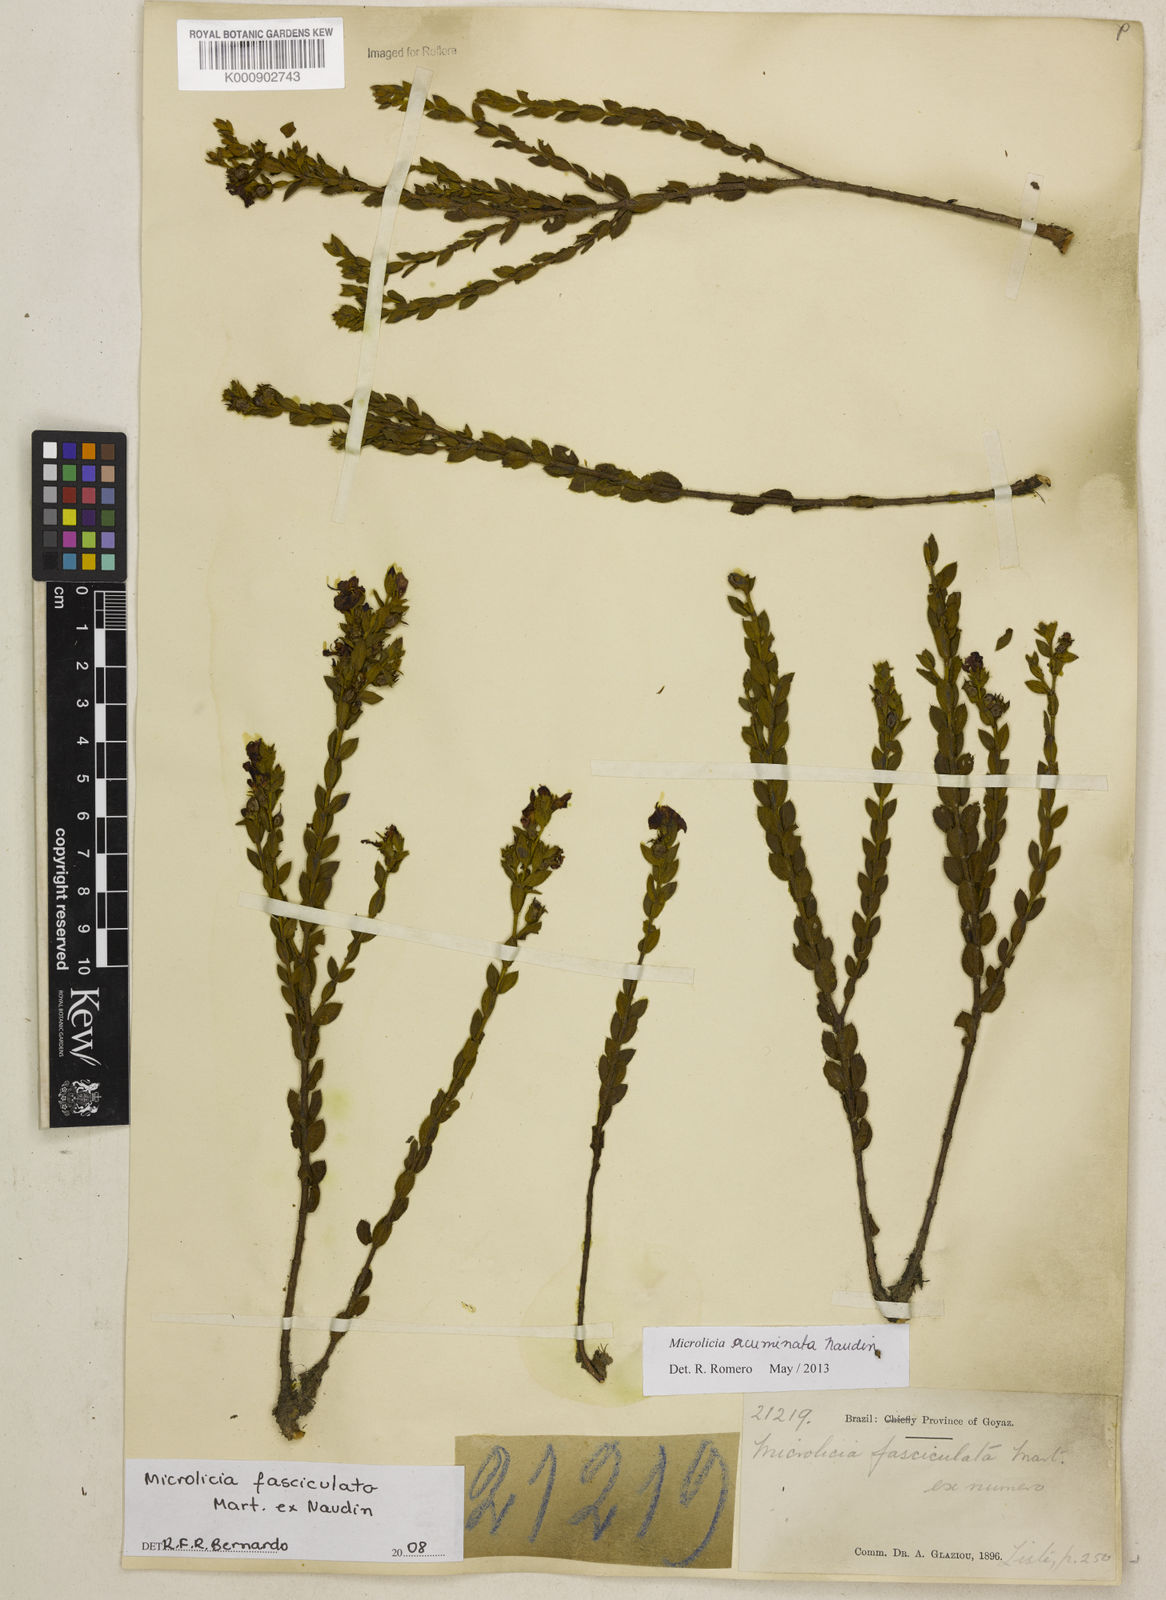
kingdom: Plantae
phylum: Tracheophyta
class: Magnoliopsida
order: Myrtales
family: Melastomataceae
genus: Microlicia
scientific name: Microlicia
